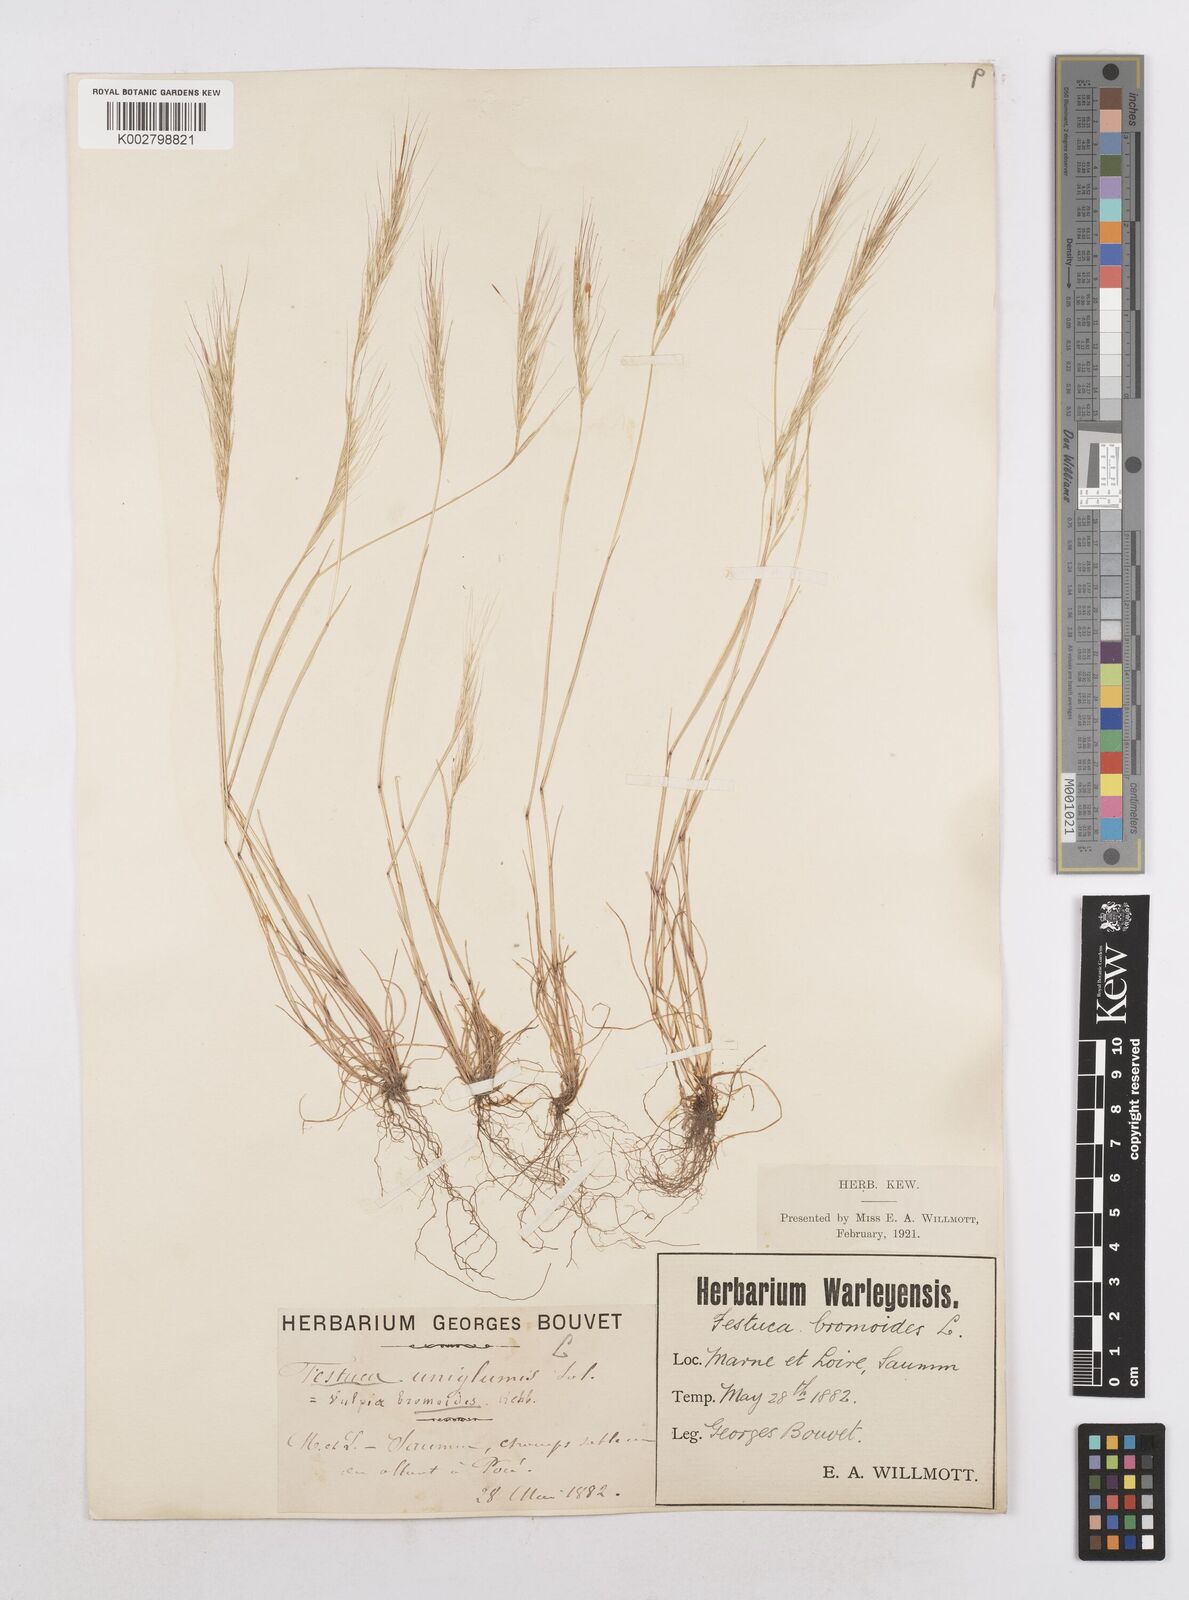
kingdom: Plantae
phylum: Tracheophyta
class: Liliopsida
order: Poales
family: Poaceae
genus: Festuca
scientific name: Festuca membranacea
